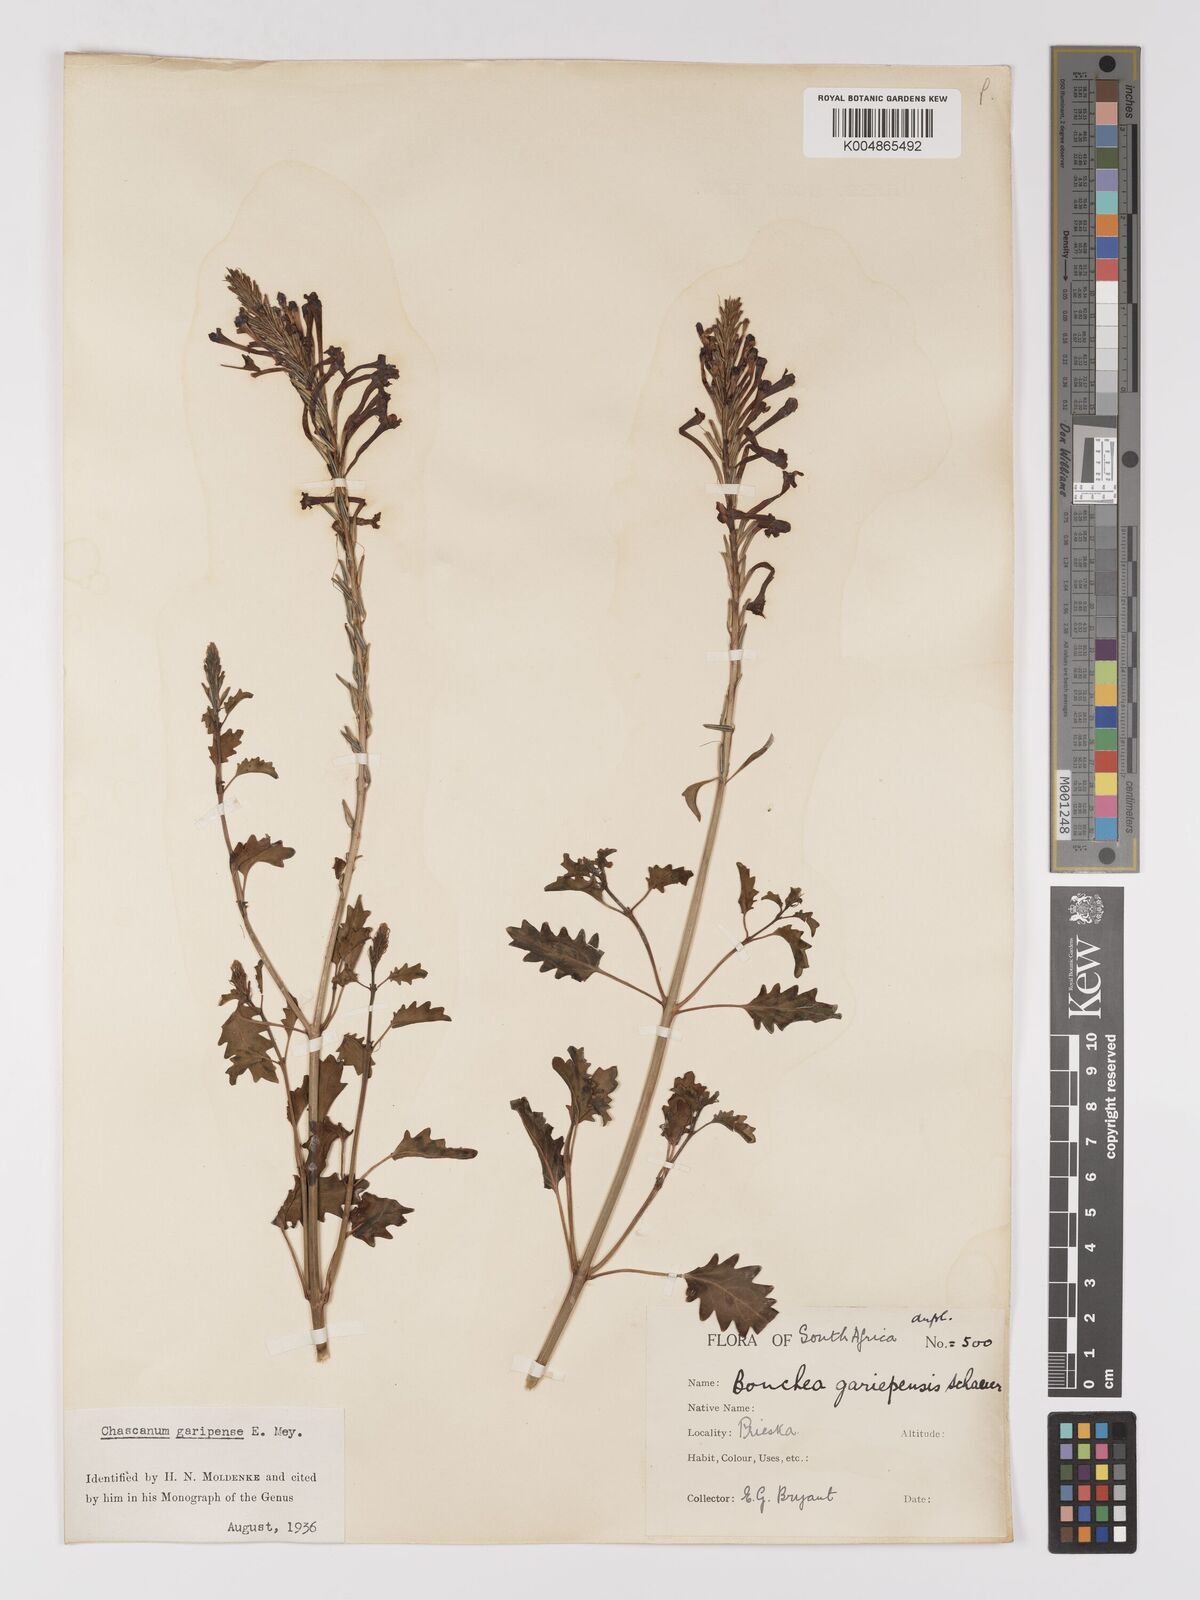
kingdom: Plantae
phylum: Tracheophyta
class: Magnoliopsida
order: Lamiales
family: Verbenaceae
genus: Chascanum
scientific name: Chascanum garipense
